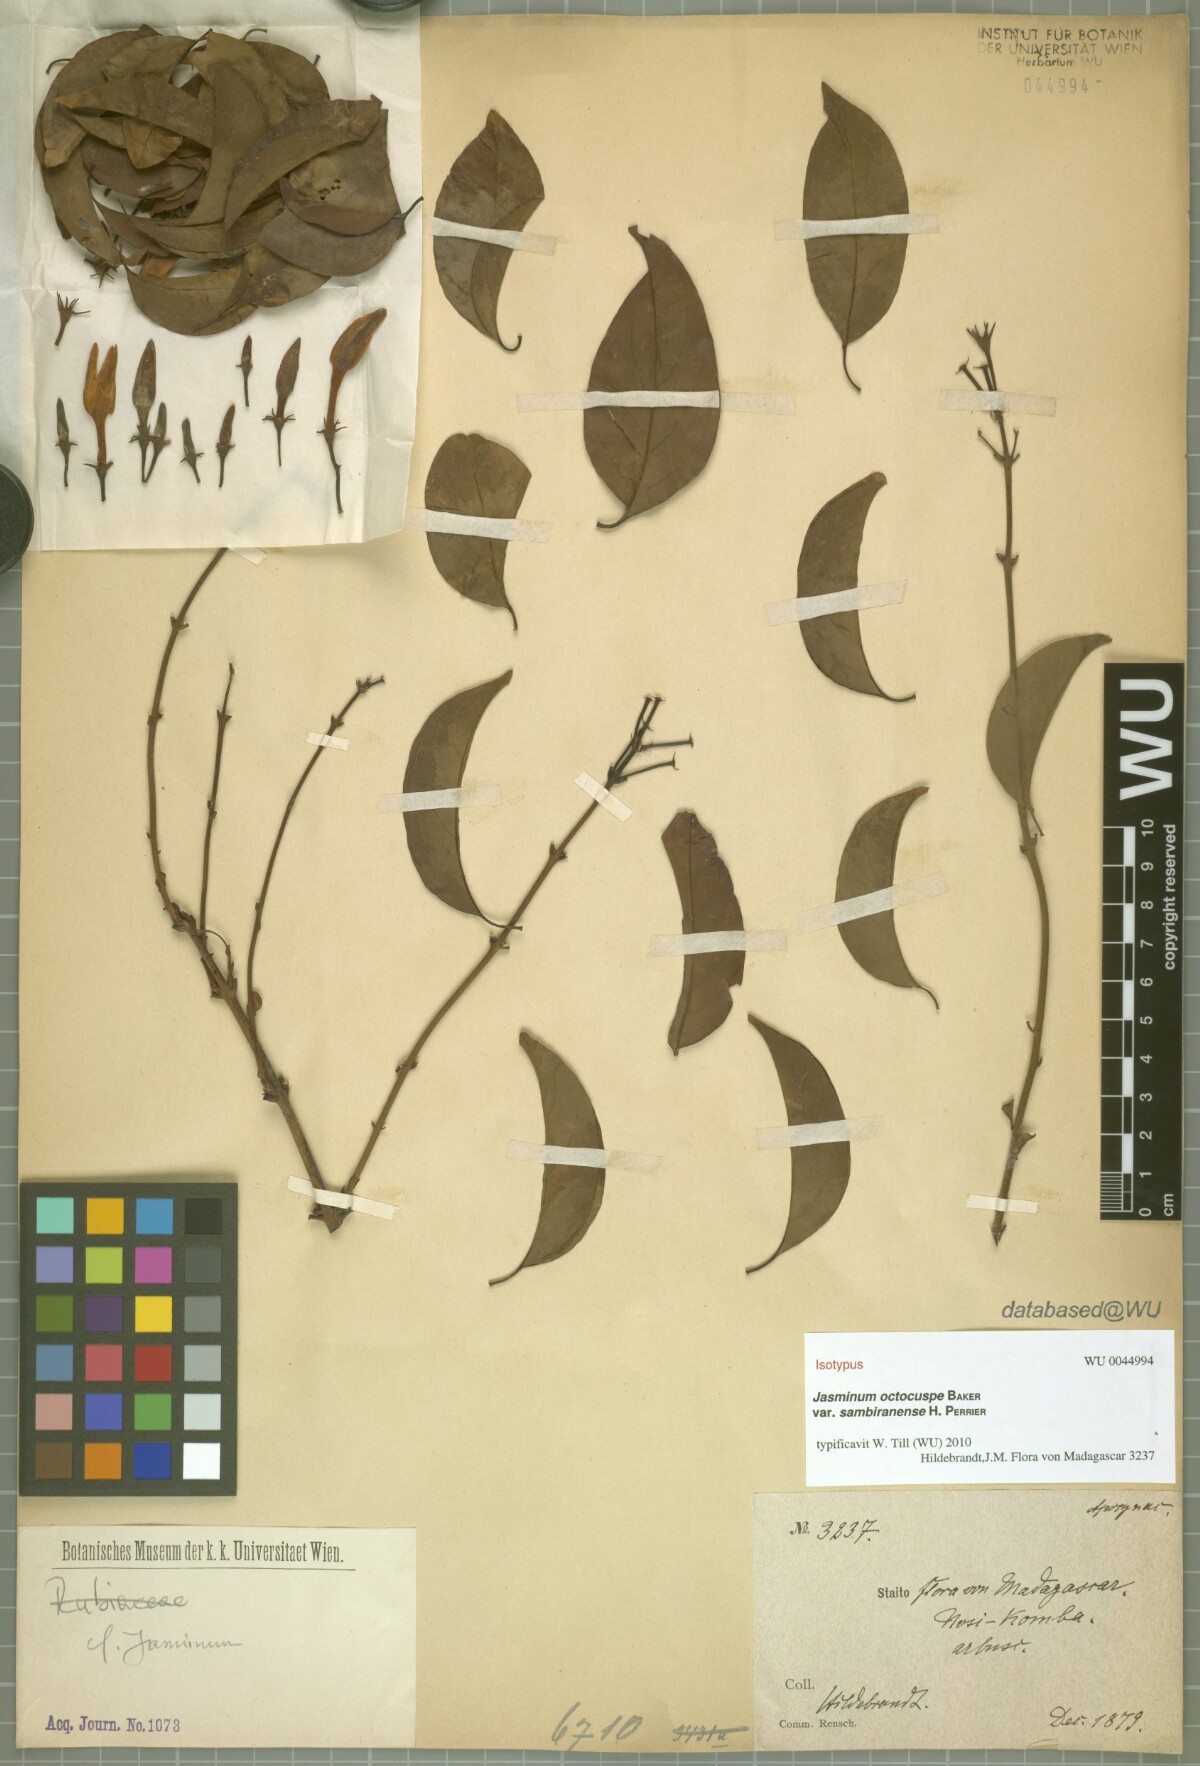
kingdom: Plantae
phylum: Tracheophyta
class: Magnoliopsida
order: Lamiales
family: Oleaceae
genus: Jasminum
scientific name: Jasminum octocuspe
